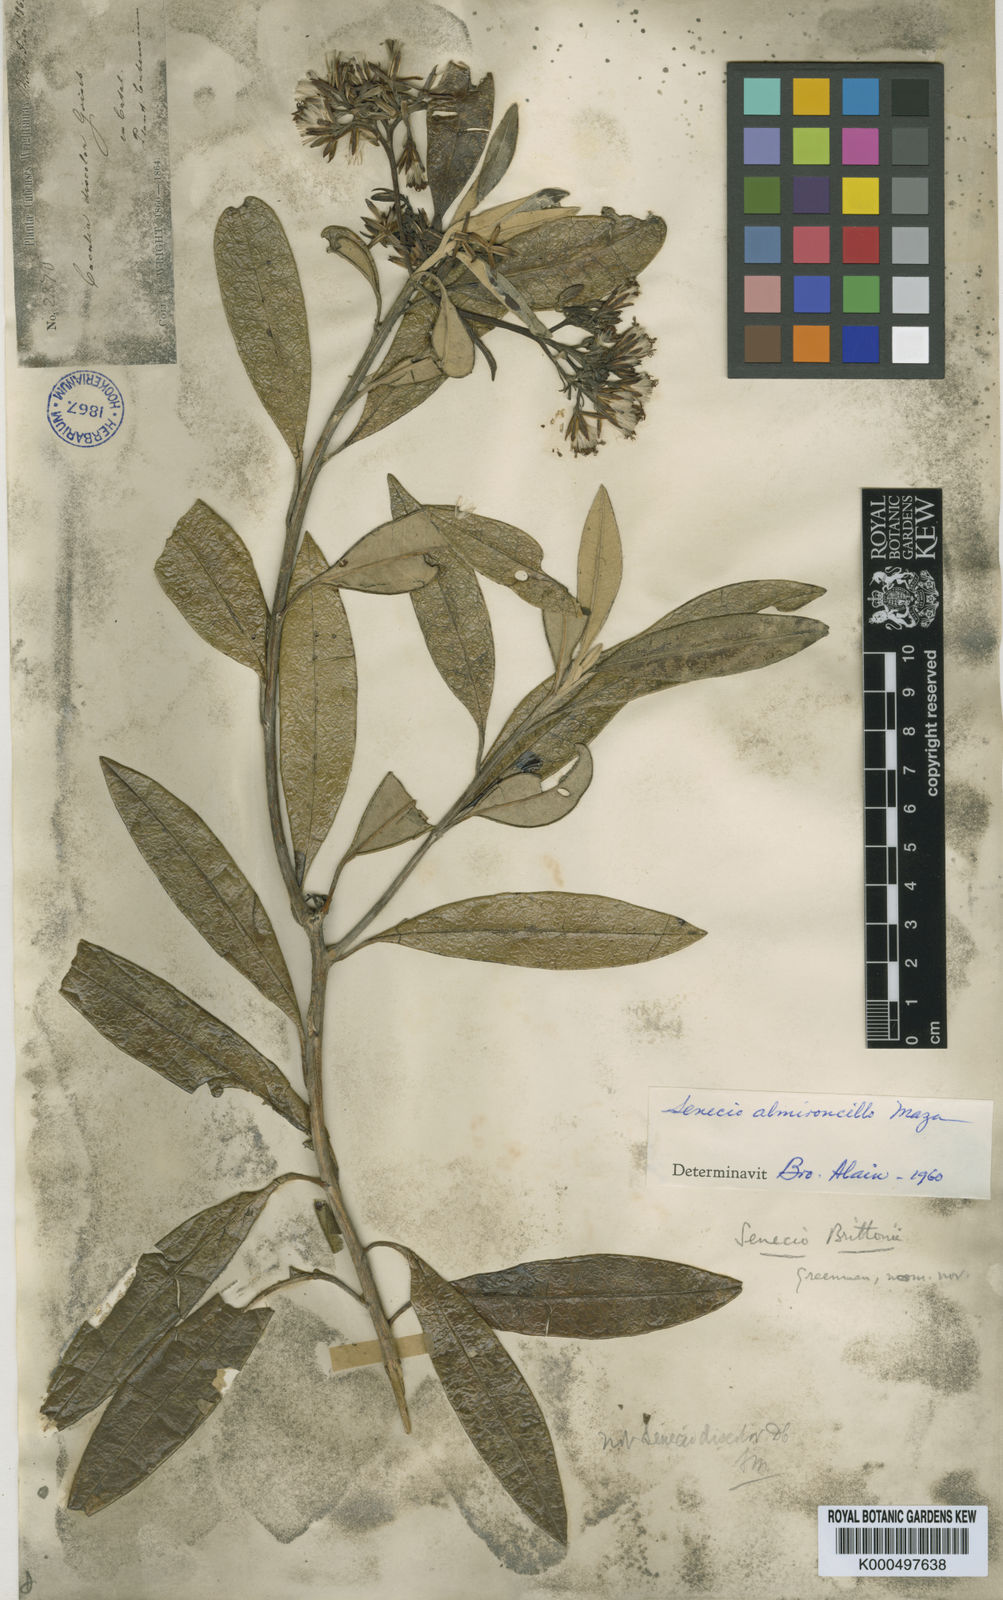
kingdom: Plantae
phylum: Tracheophyta
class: Magnoliopsida
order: Asterales
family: Asteraceae
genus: Antillanthus
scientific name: Antillanthus discolor
